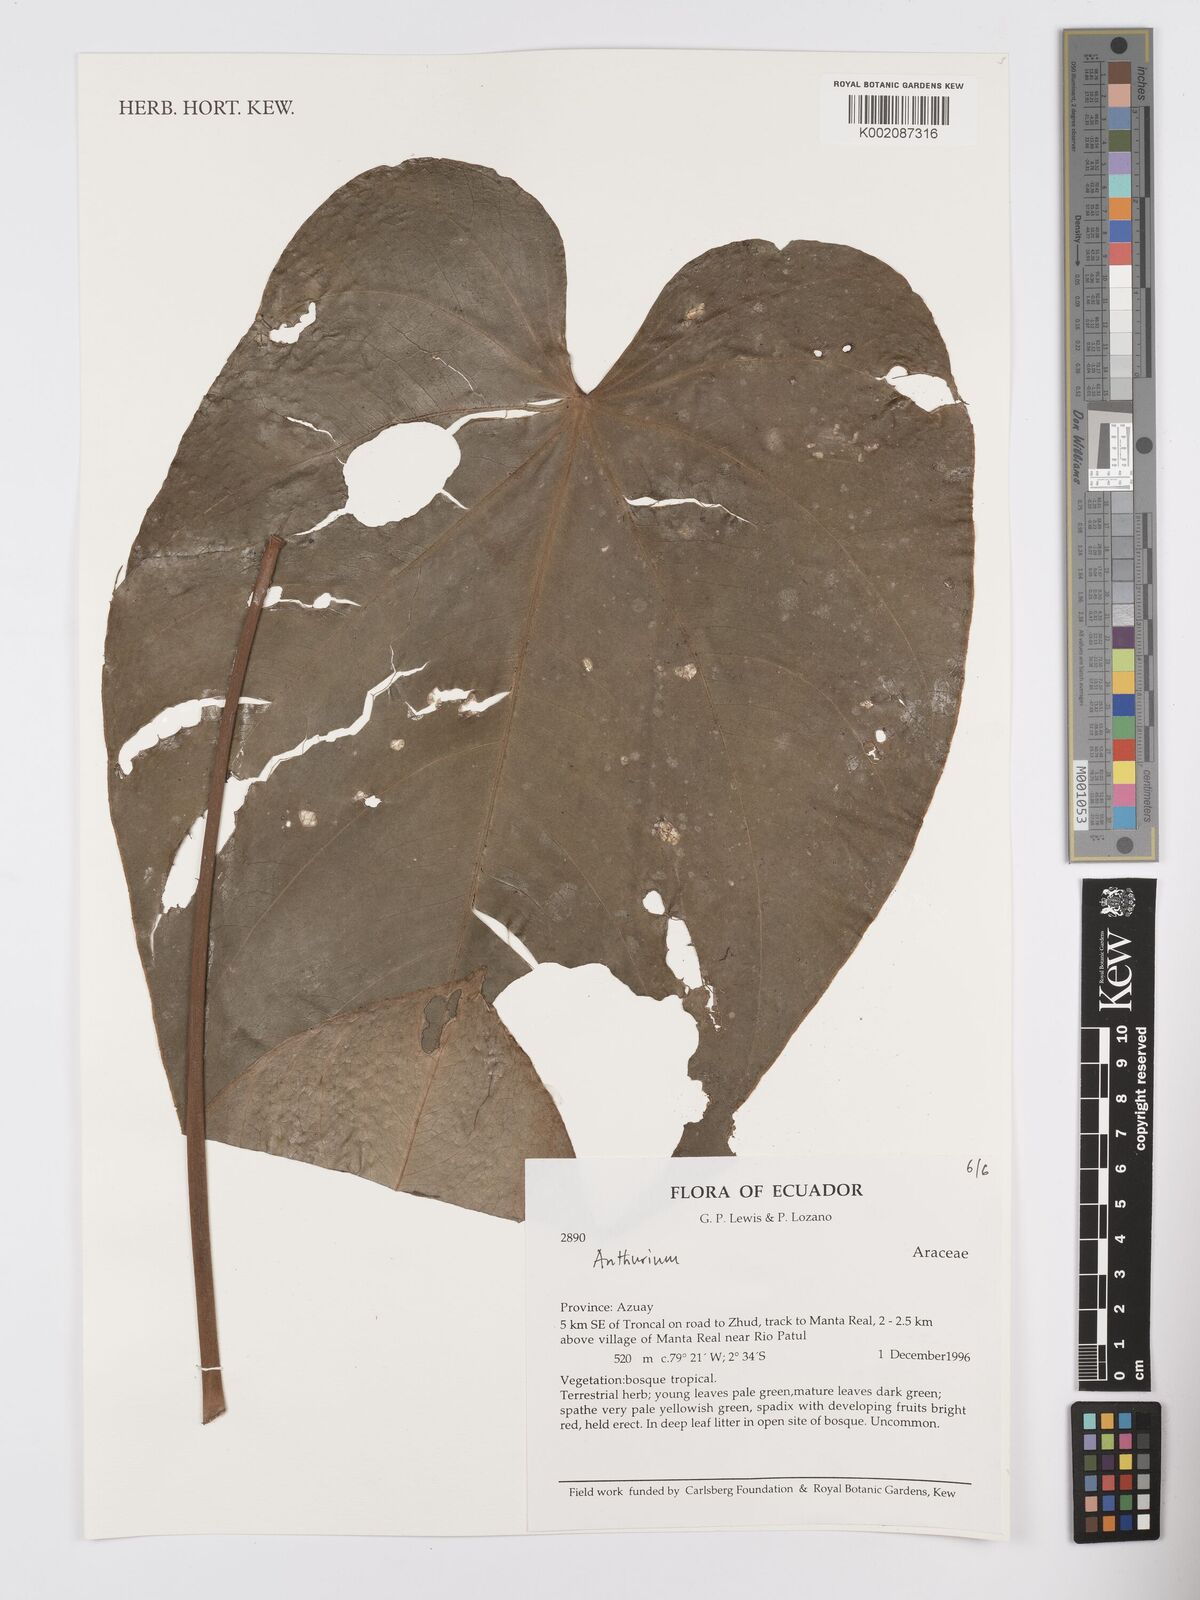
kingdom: Plantae
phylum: Tracheophyta
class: Liliopsida
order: Alismatales
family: Araceae
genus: Anthurium
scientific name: Anthurium
